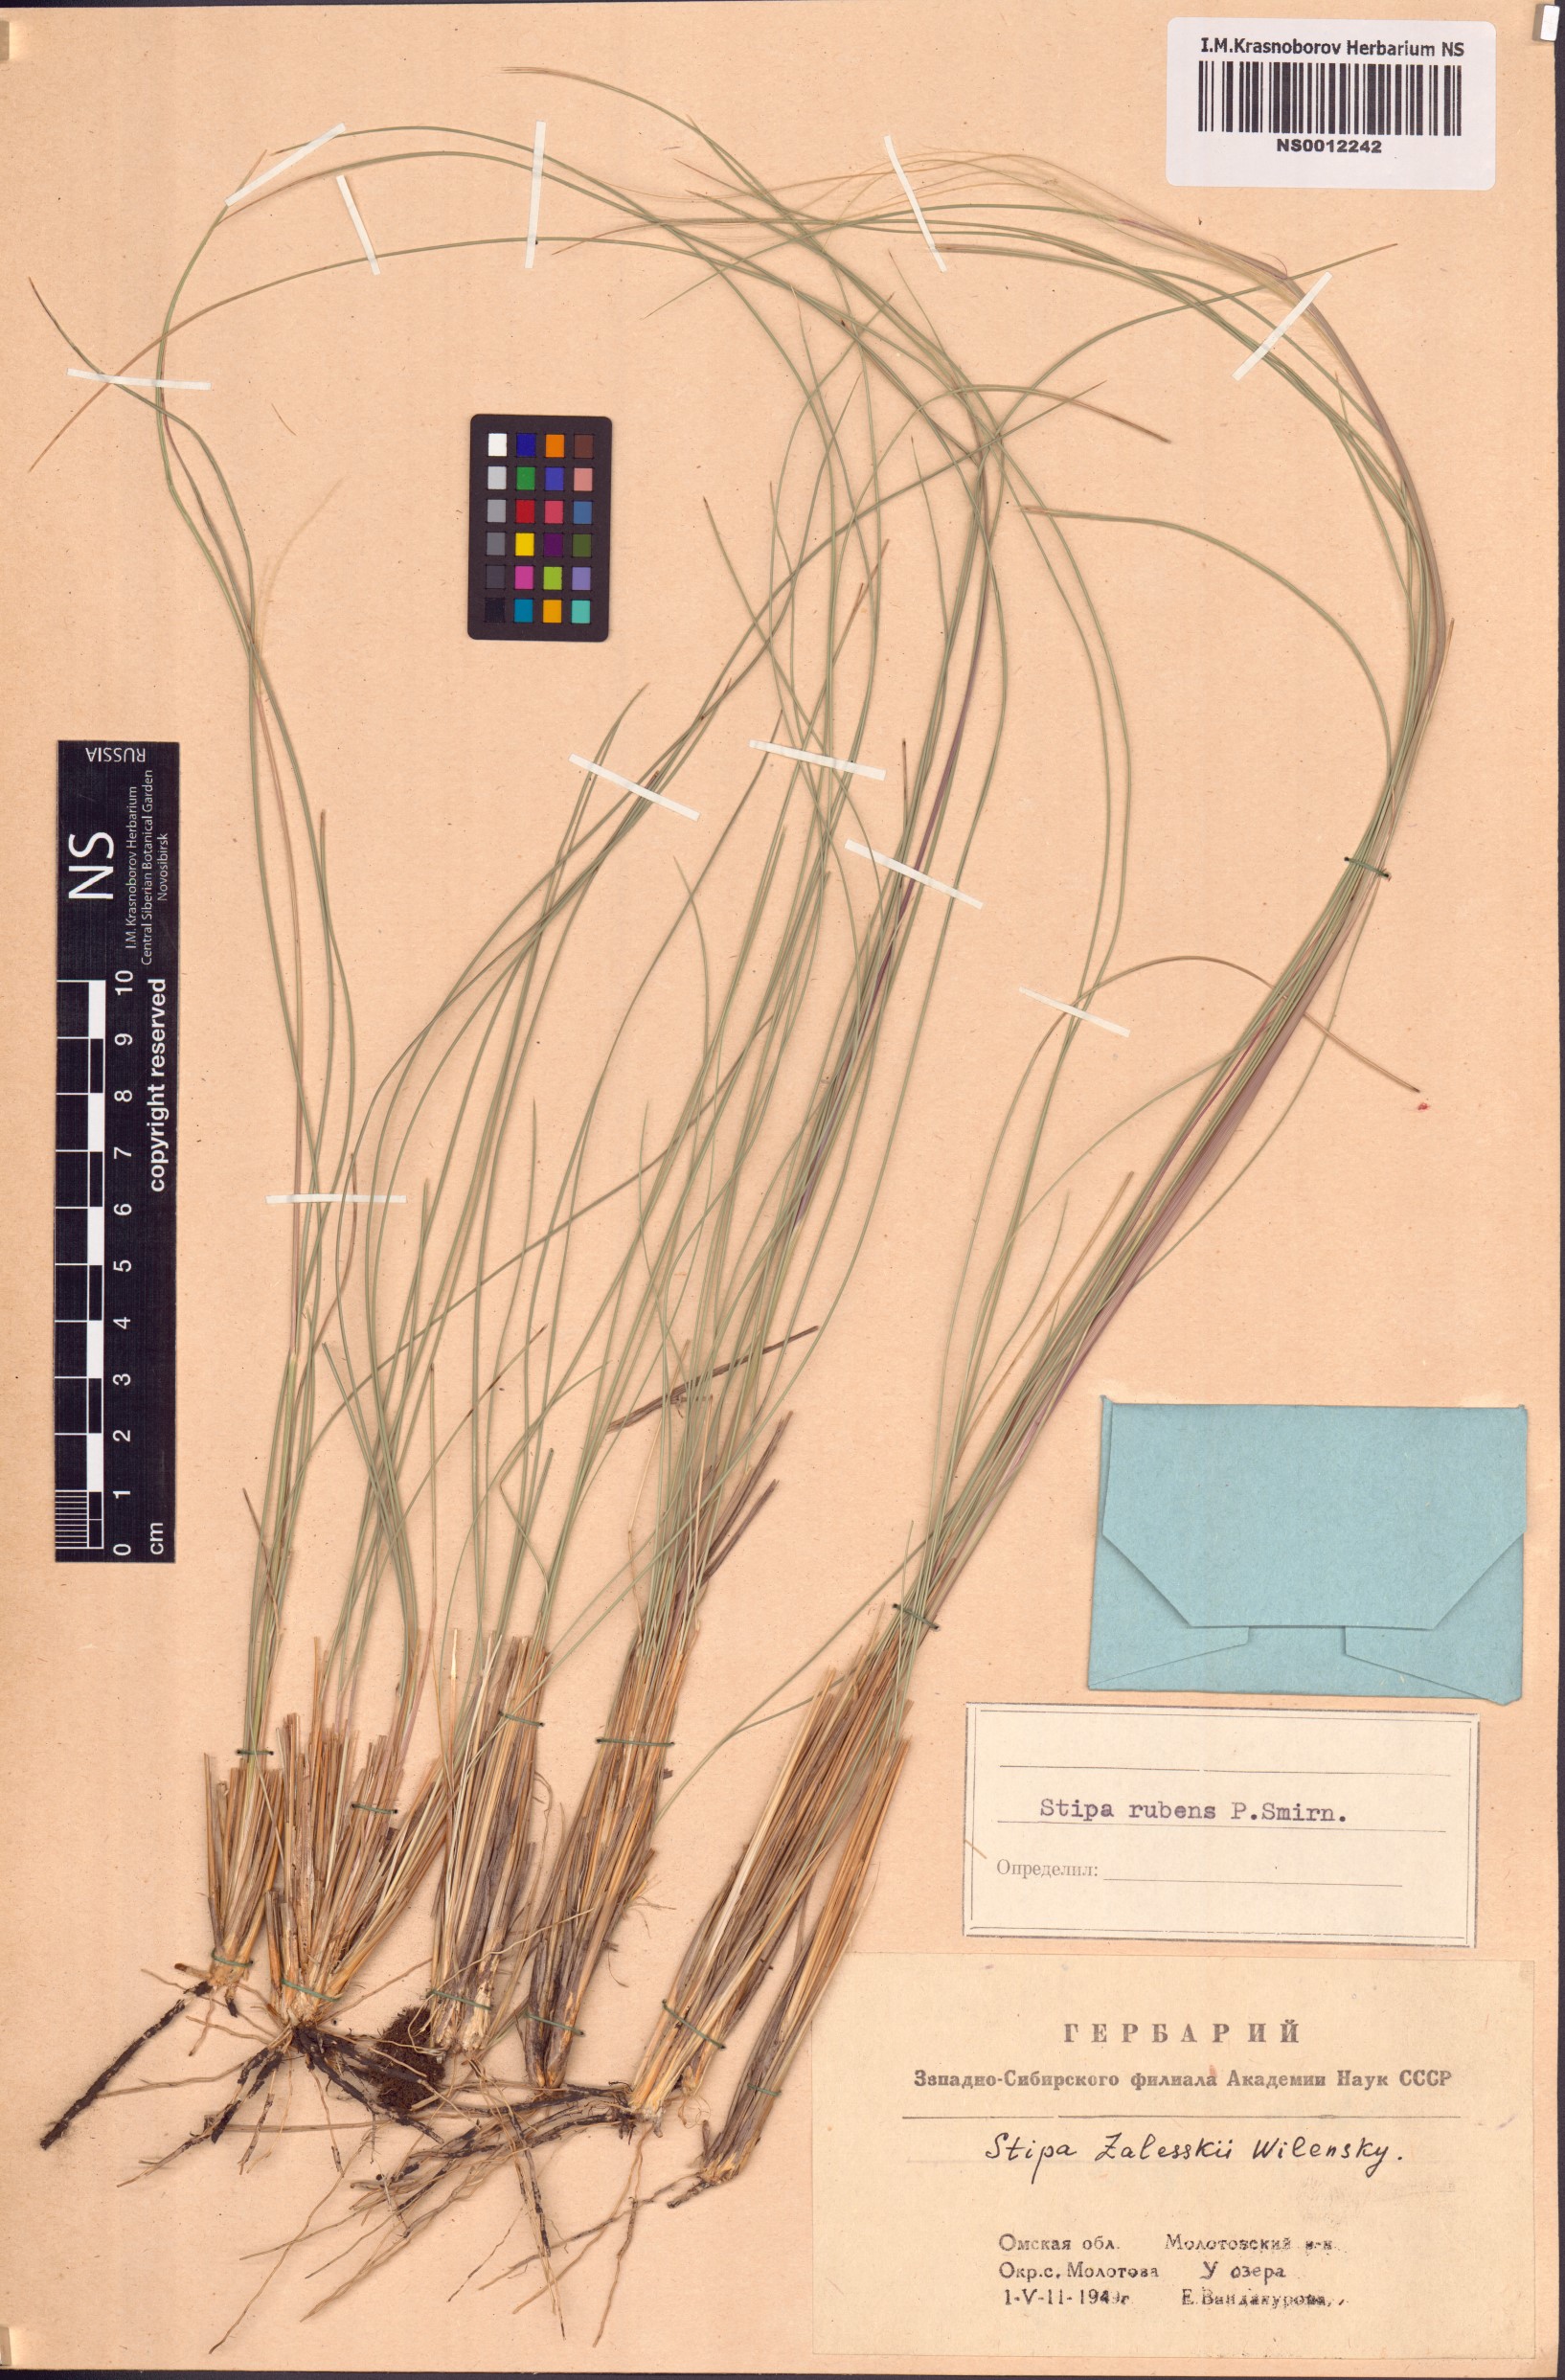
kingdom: Plantae
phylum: Tracheophyta
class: Liliopsida
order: Poales
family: Poaceae
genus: Stipa
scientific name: Stipa zalesskii
